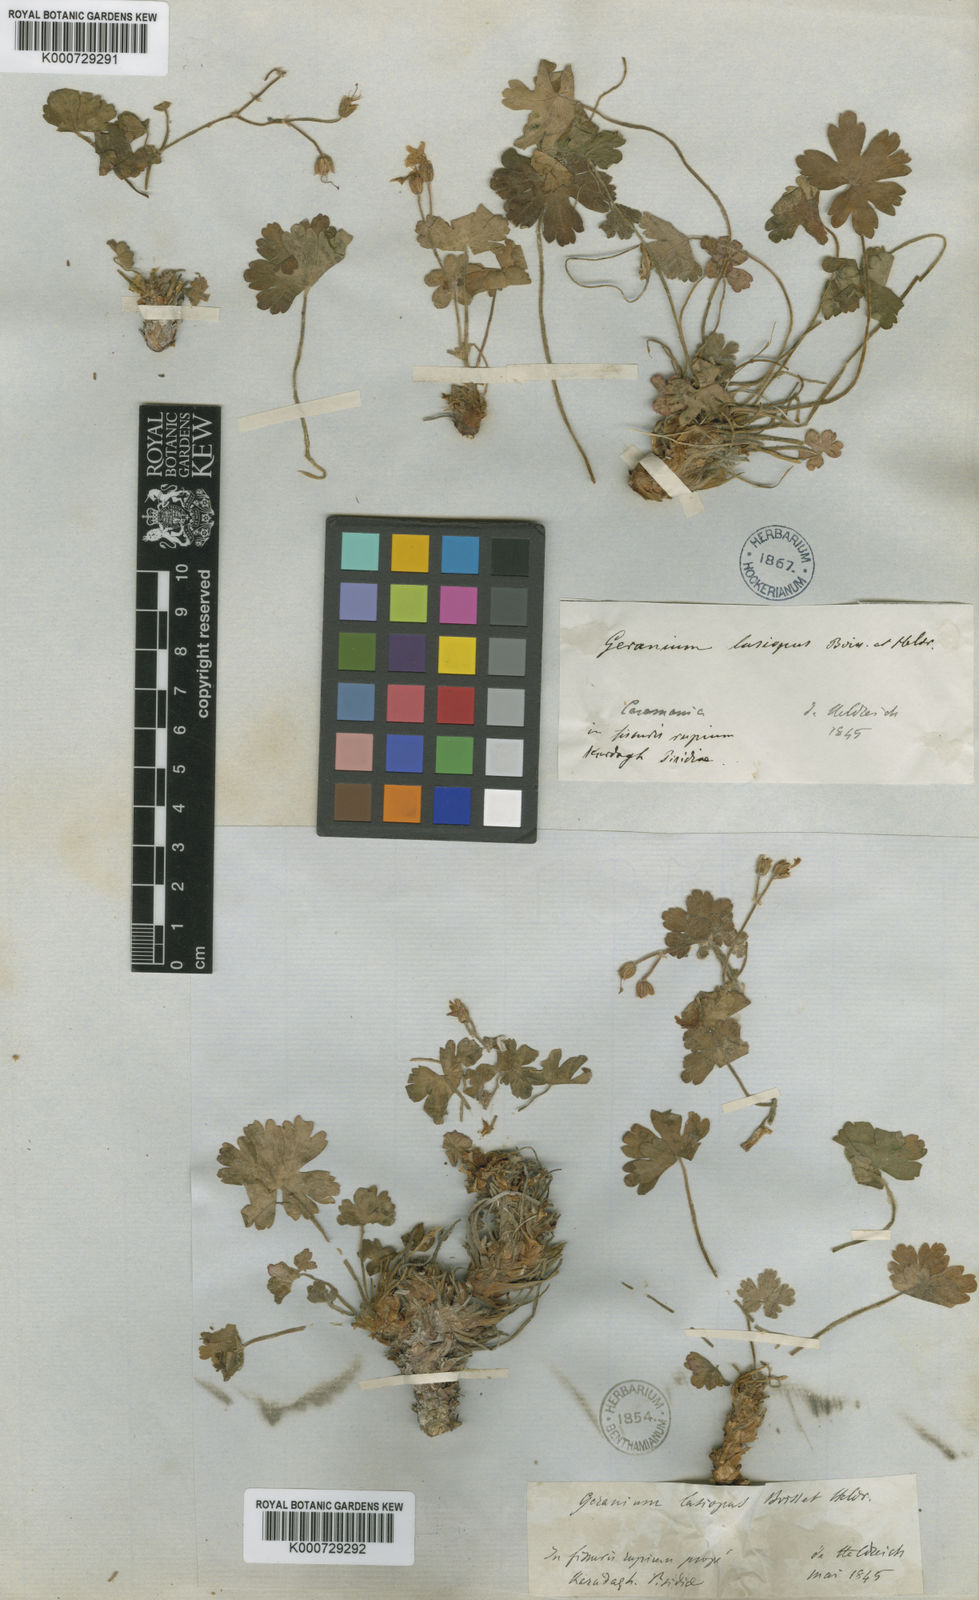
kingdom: Plantae
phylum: Tracheophyta
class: Magnoliopsida
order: Geraniales
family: Geraniaceae
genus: Geranium
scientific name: Geranium lasiopus
